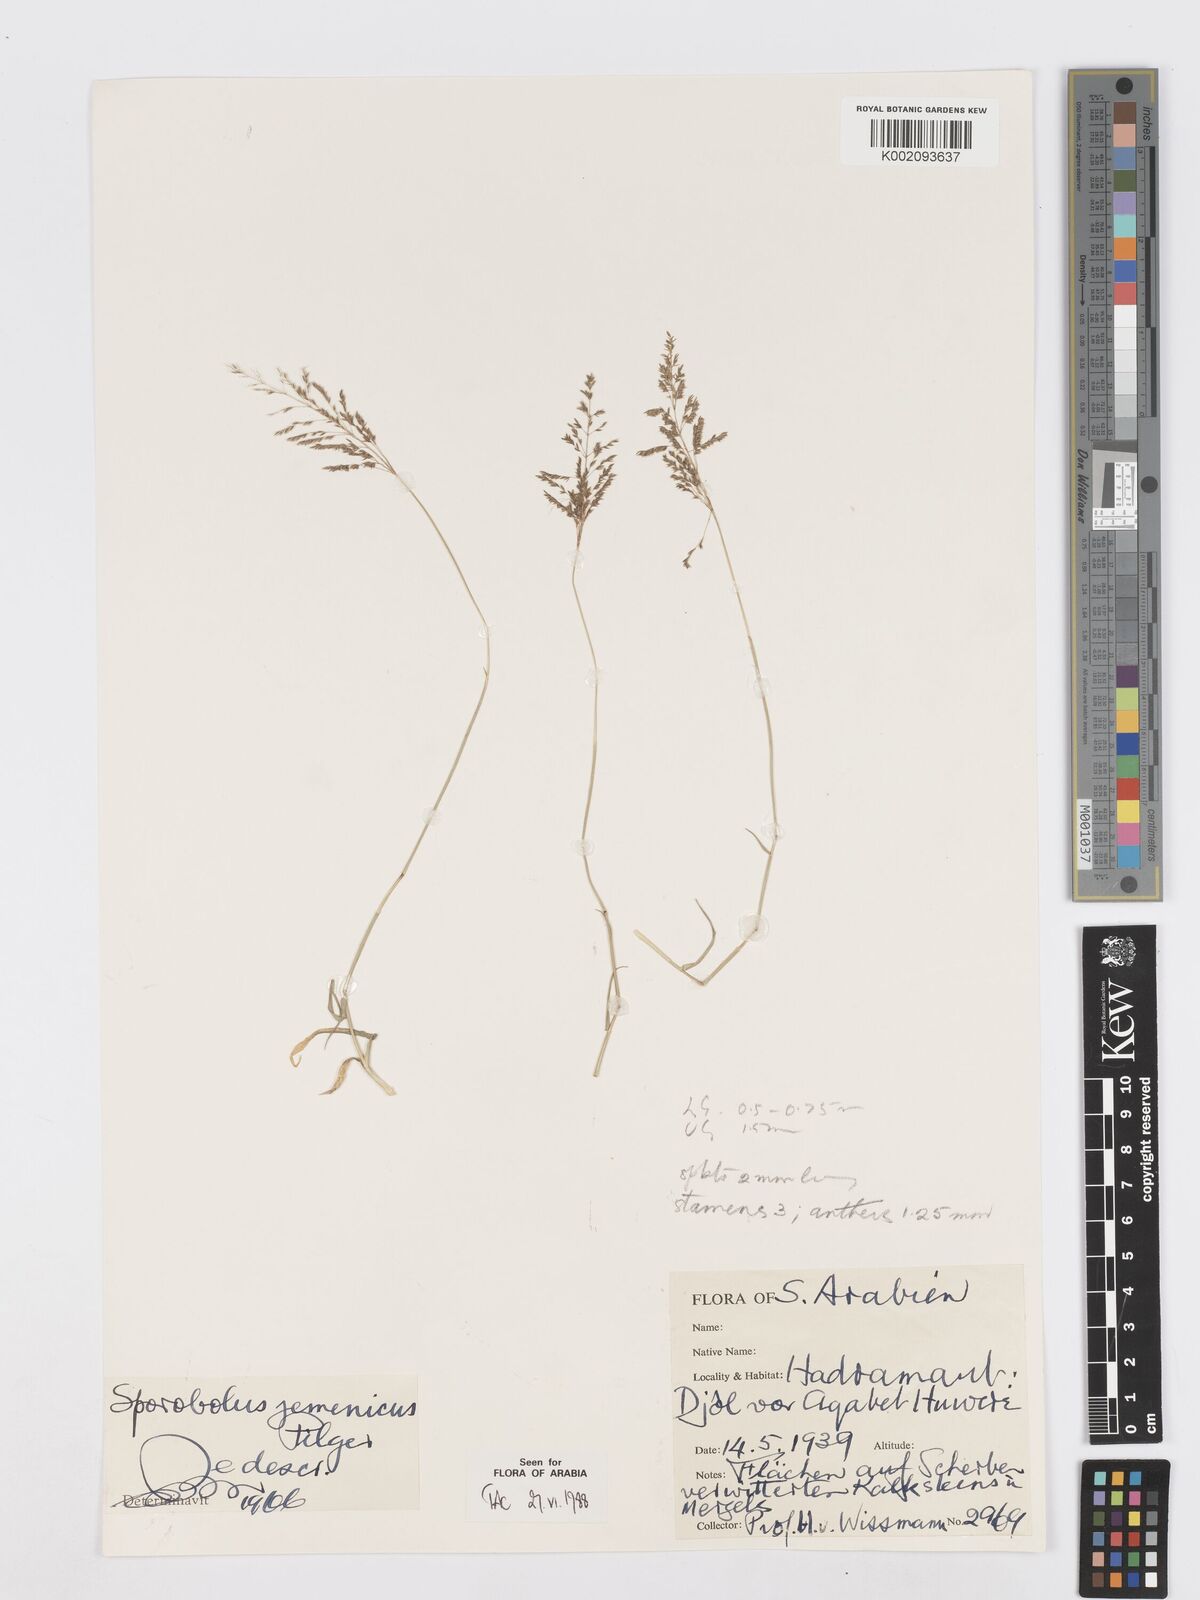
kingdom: Plantae
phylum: Tracheophyta
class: Liliopsida
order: Poales
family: Poaceae
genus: Sporobolus
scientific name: Sporobolus ioclados
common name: Pan dropseed
